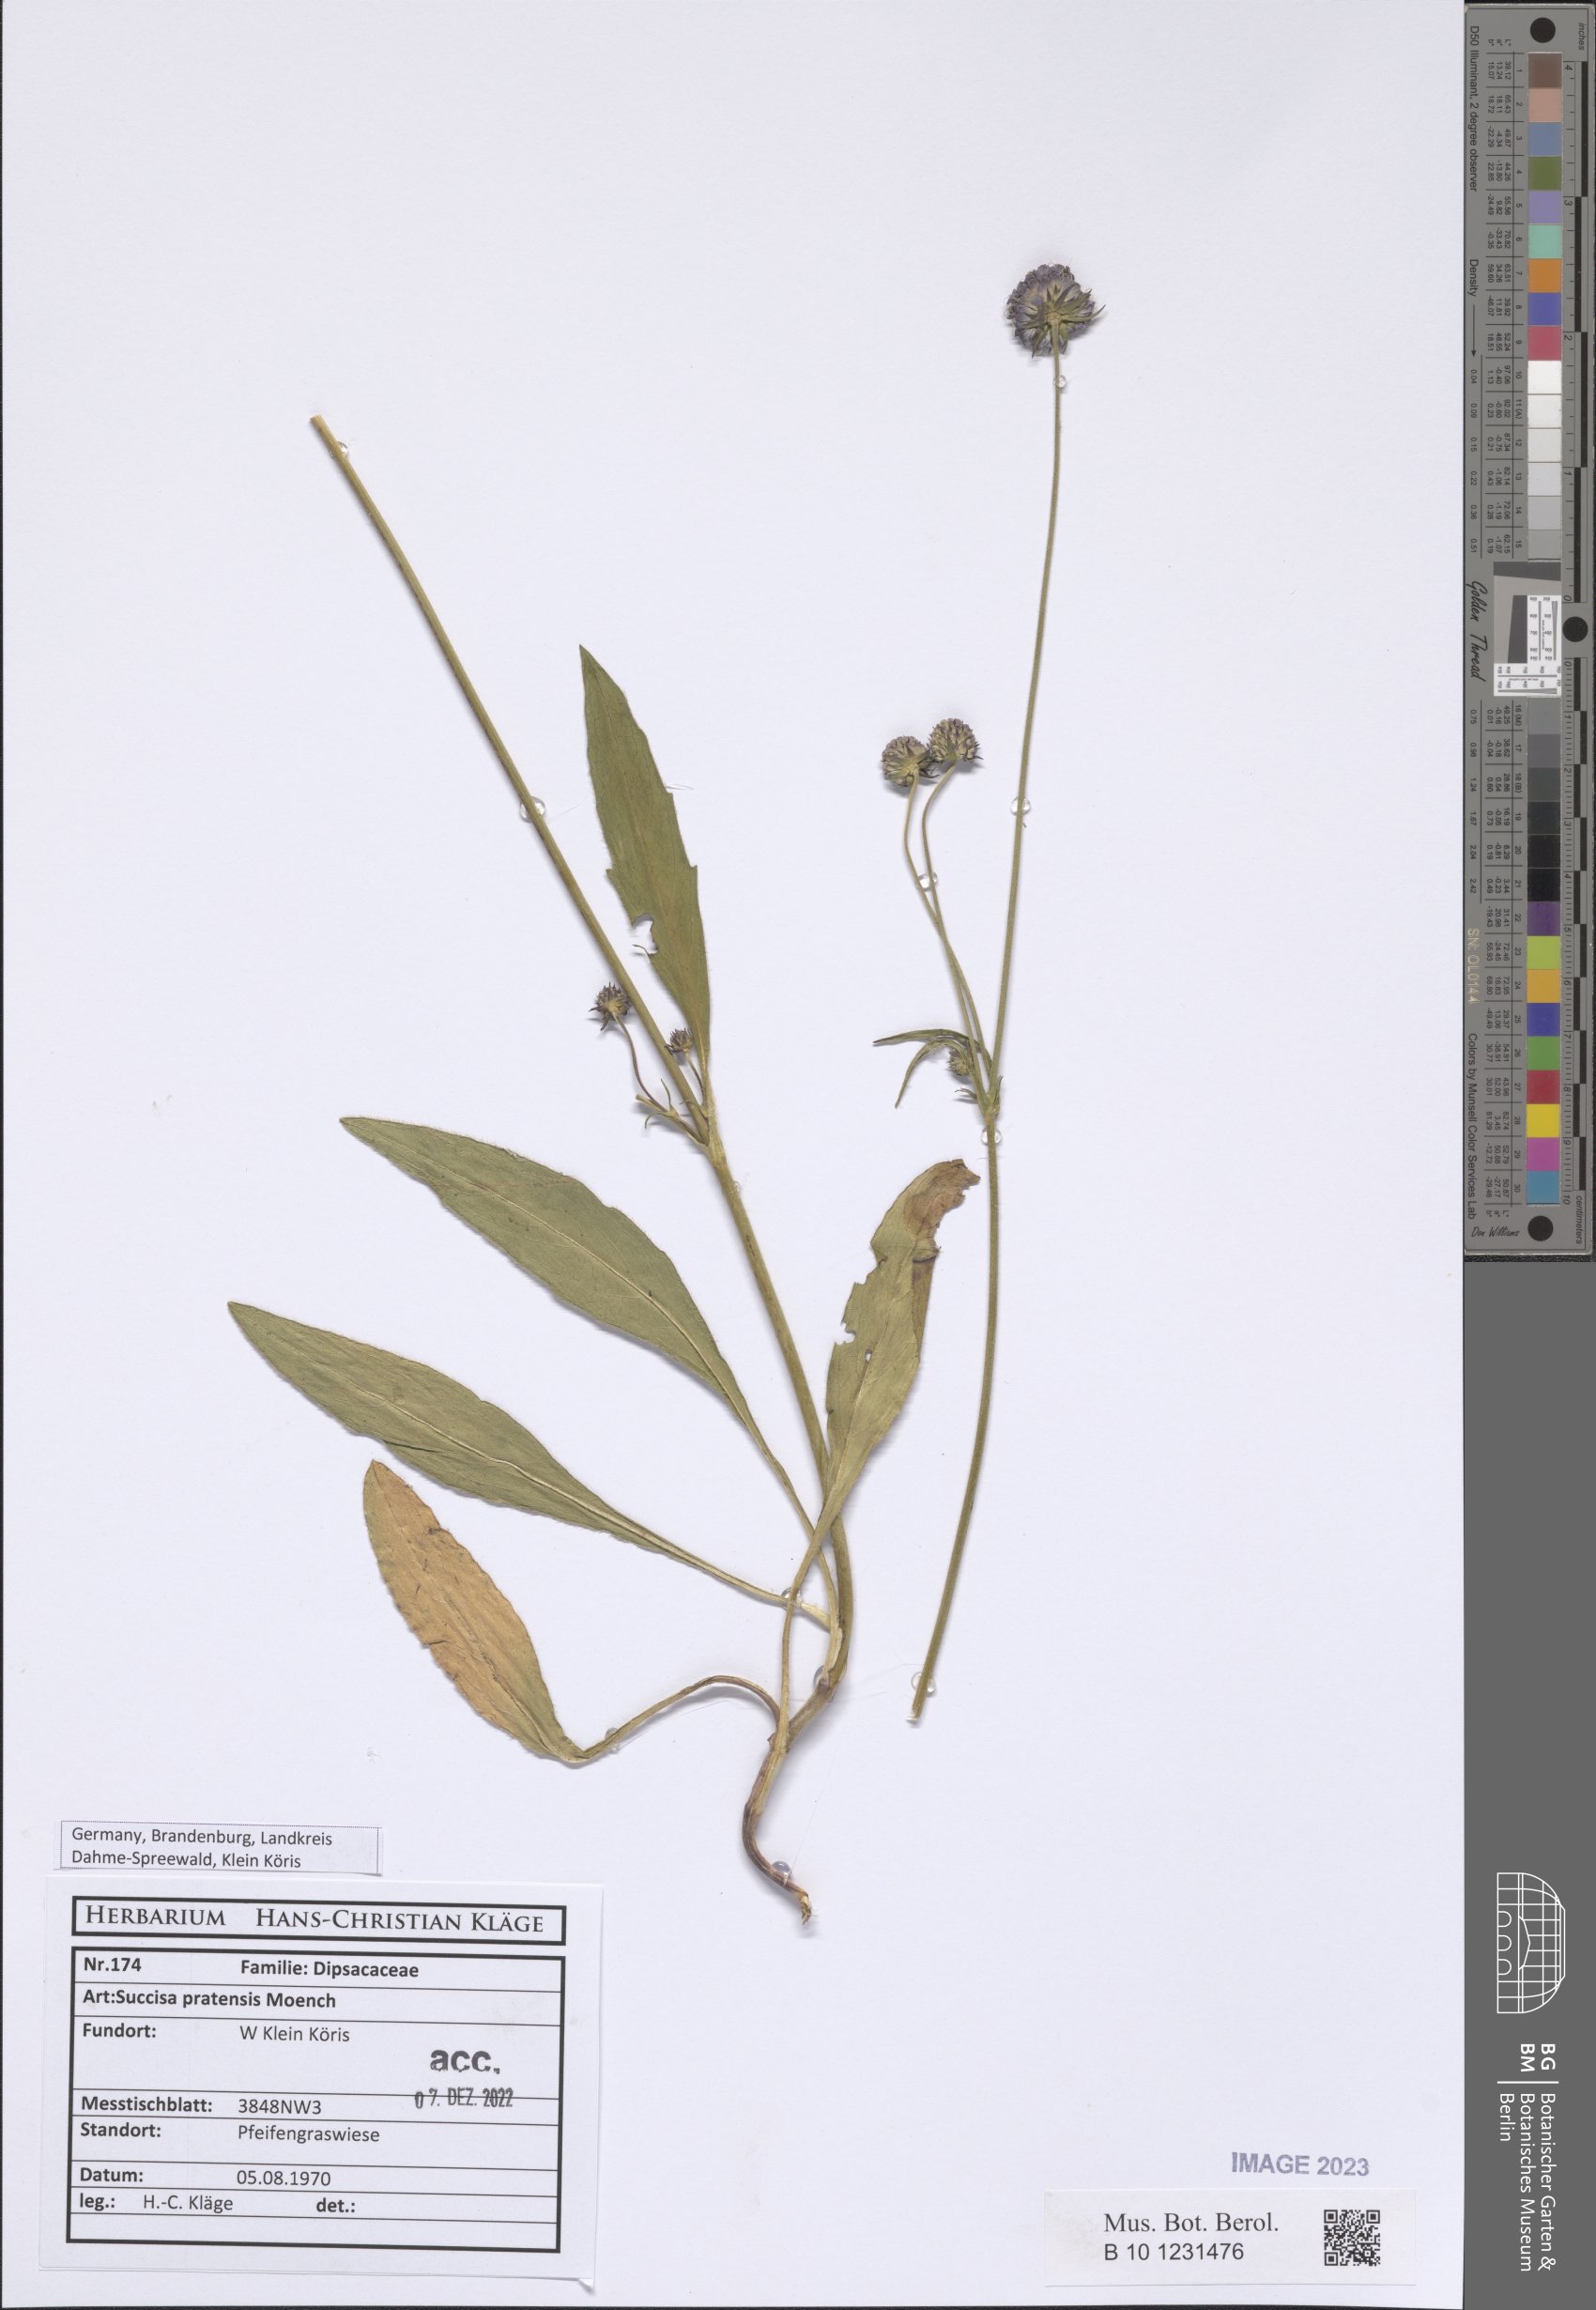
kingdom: Plantae
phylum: Tracheophyta
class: Magnoliopsida
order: Dipsacales
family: Caprifoliaceae
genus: Succisa
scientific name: Succisa pratensis
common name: Devil's-bit
